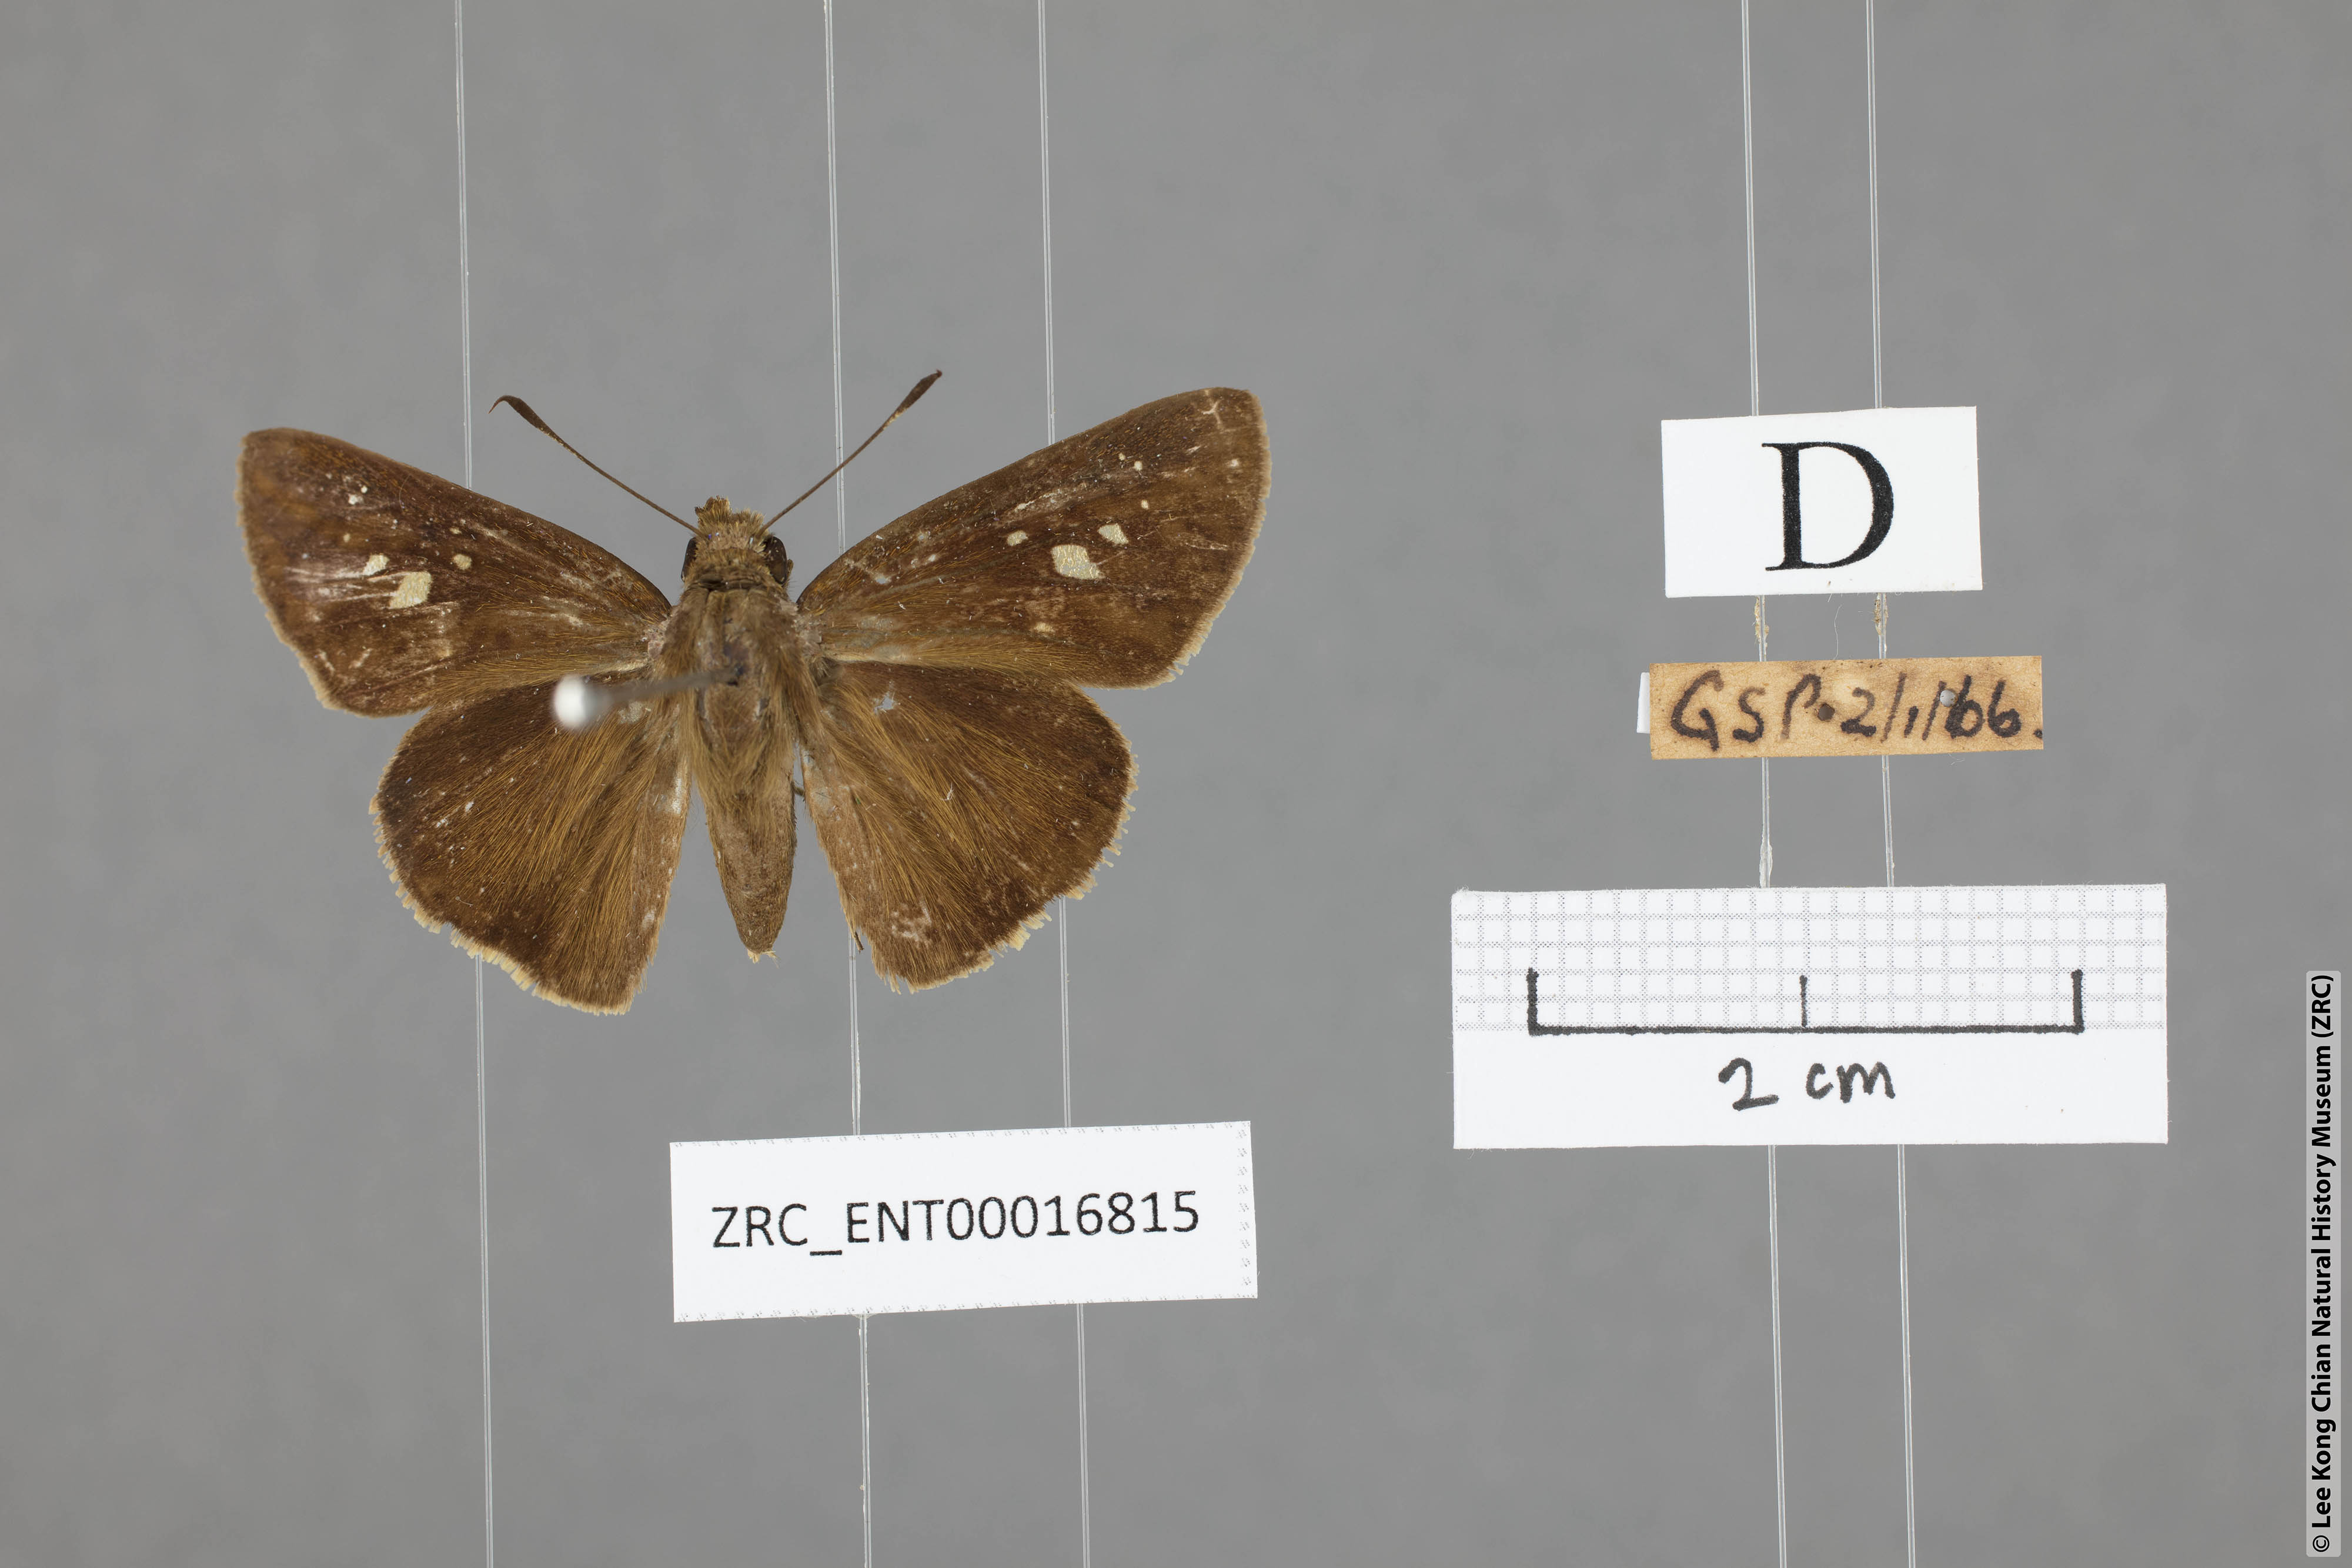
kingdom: Animalia
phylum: Arthropoda
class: Insecta
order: Lepidoptera
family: Hesperiidae
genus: Caltoris
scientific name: Caltoris cormasa
